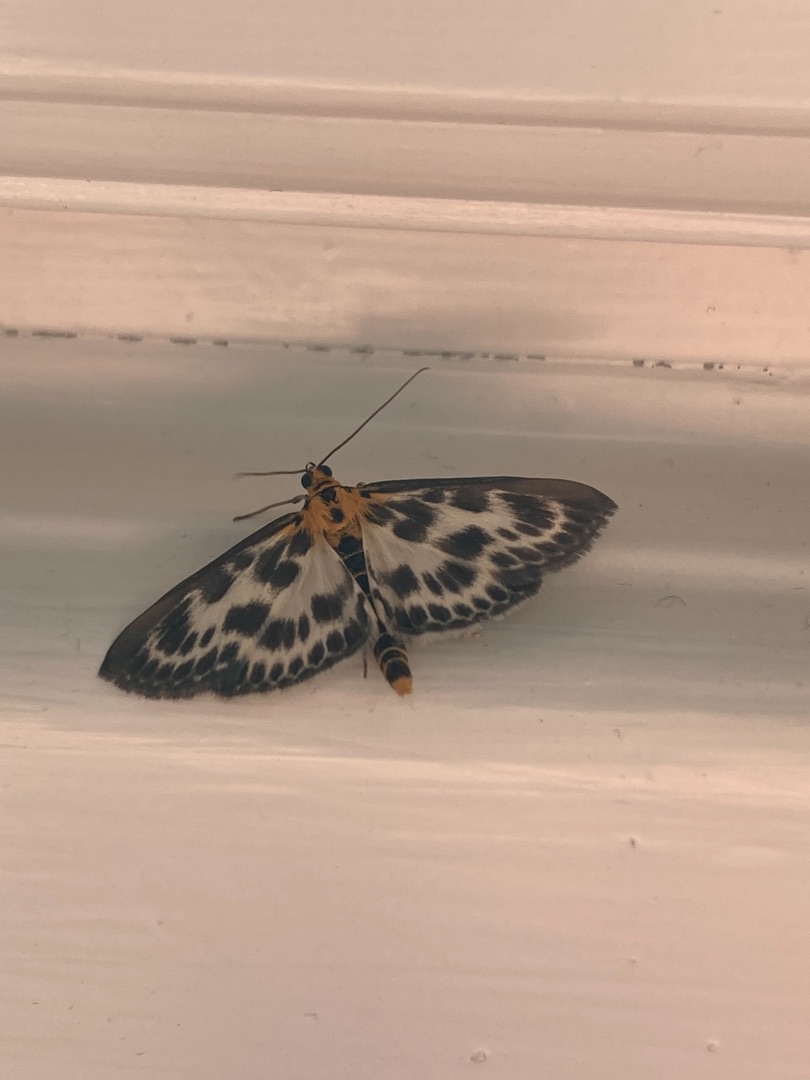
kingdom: Animalia
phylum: Arthropoda
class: Insecta
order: Lepidoptera
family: Crambidae
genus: Anania
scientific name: Anania hortulata
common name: Nældehalvmøl
